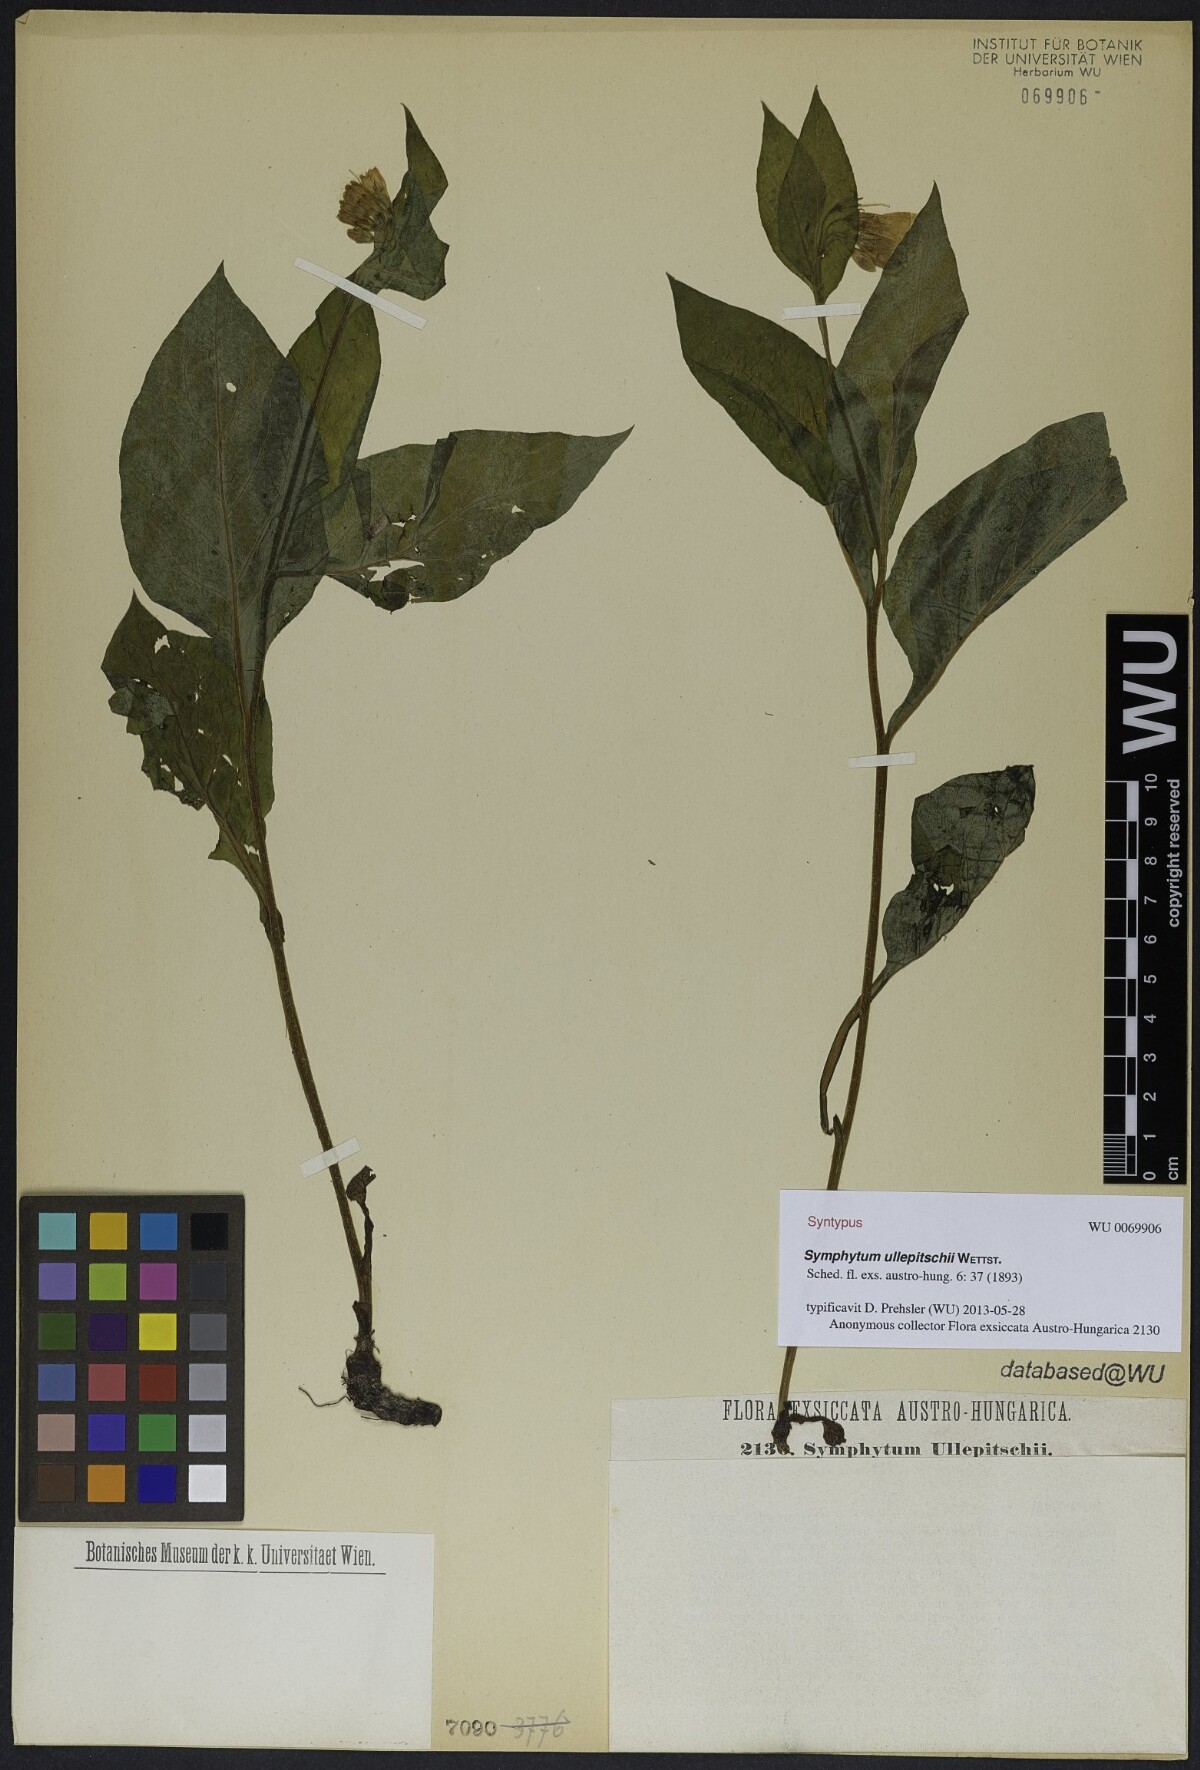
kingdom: Plantae
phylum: Tracheophyta
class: Magnoliopsida
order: Boraginales
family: Boraginaceae
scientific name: Boraginaceae
